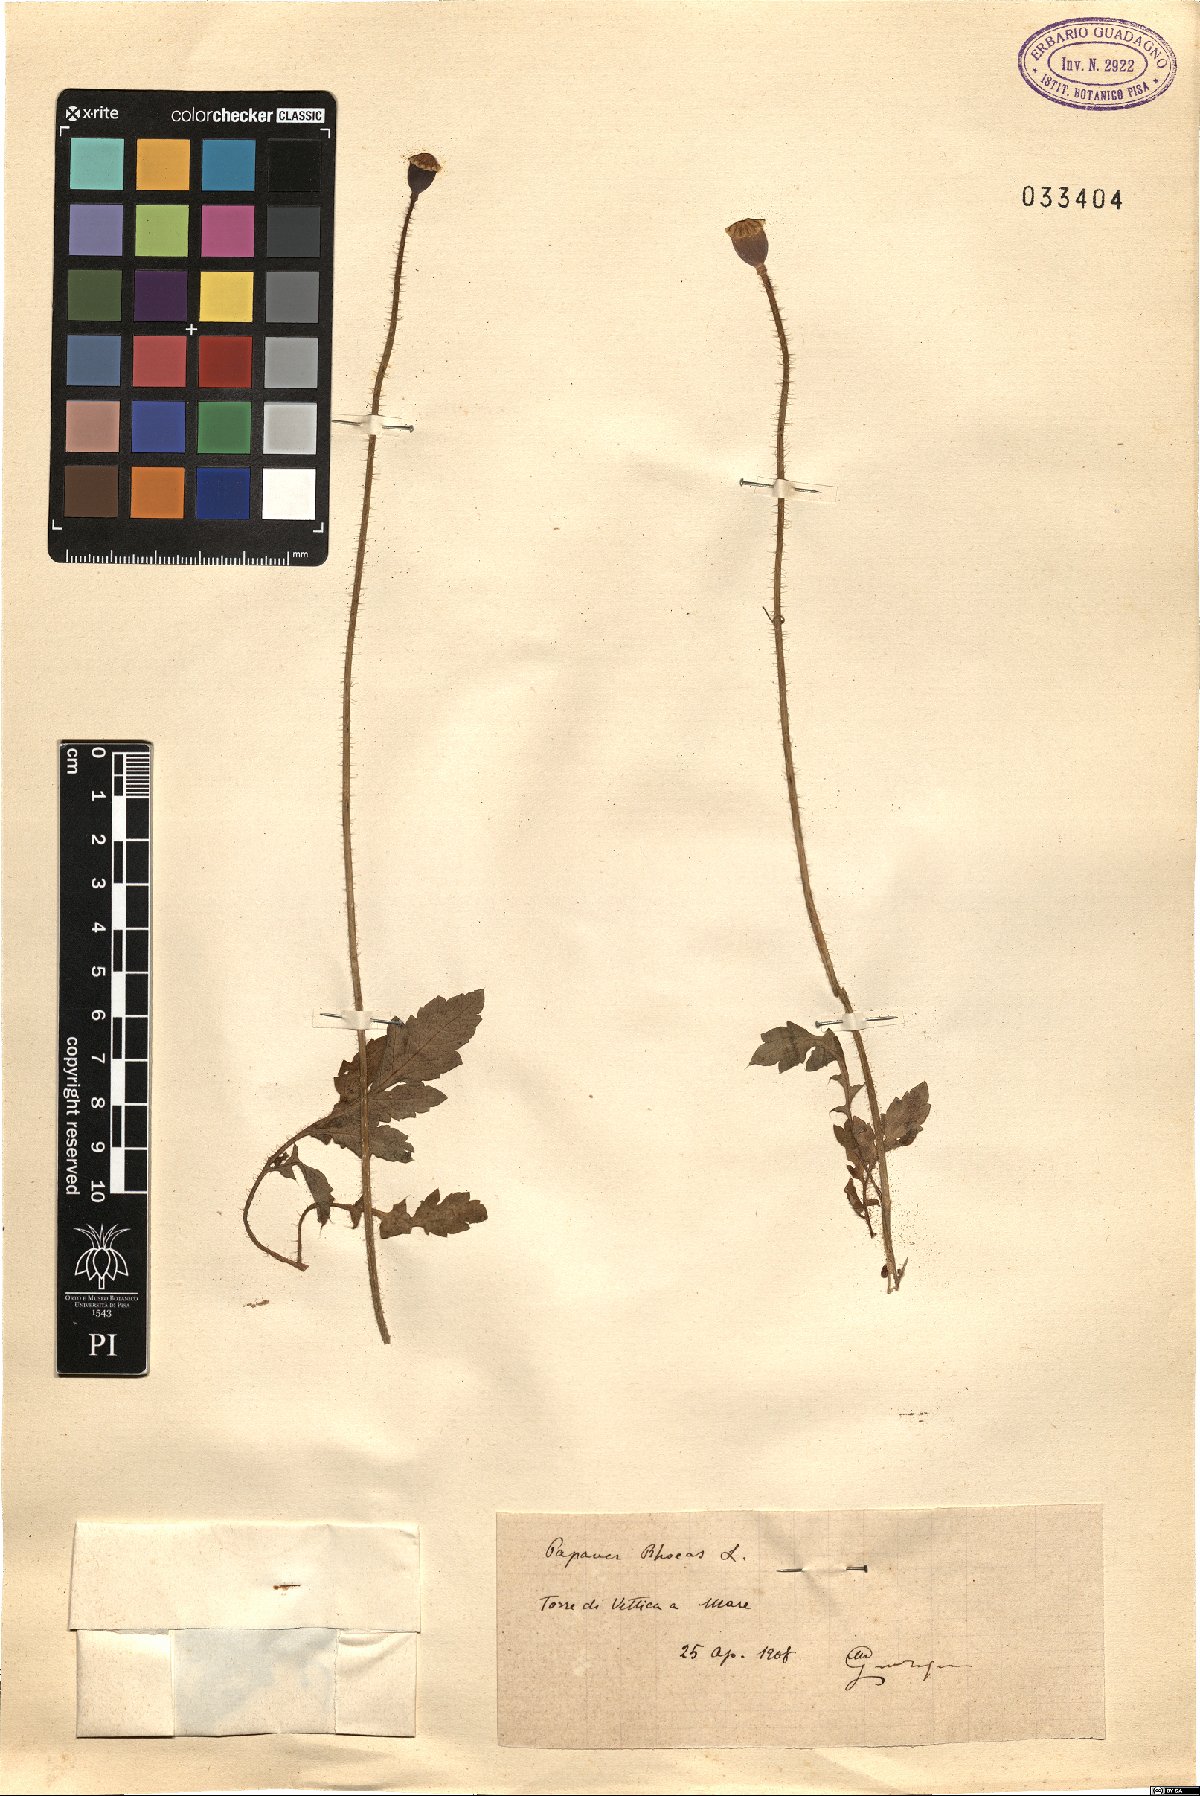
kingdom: Plantae
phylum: Tracheophyta
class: Magnoliopsida
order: Ranunculales
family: Papaveraceae
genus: Papaver
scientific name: Papaver rhoeas
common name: Corn poppy
